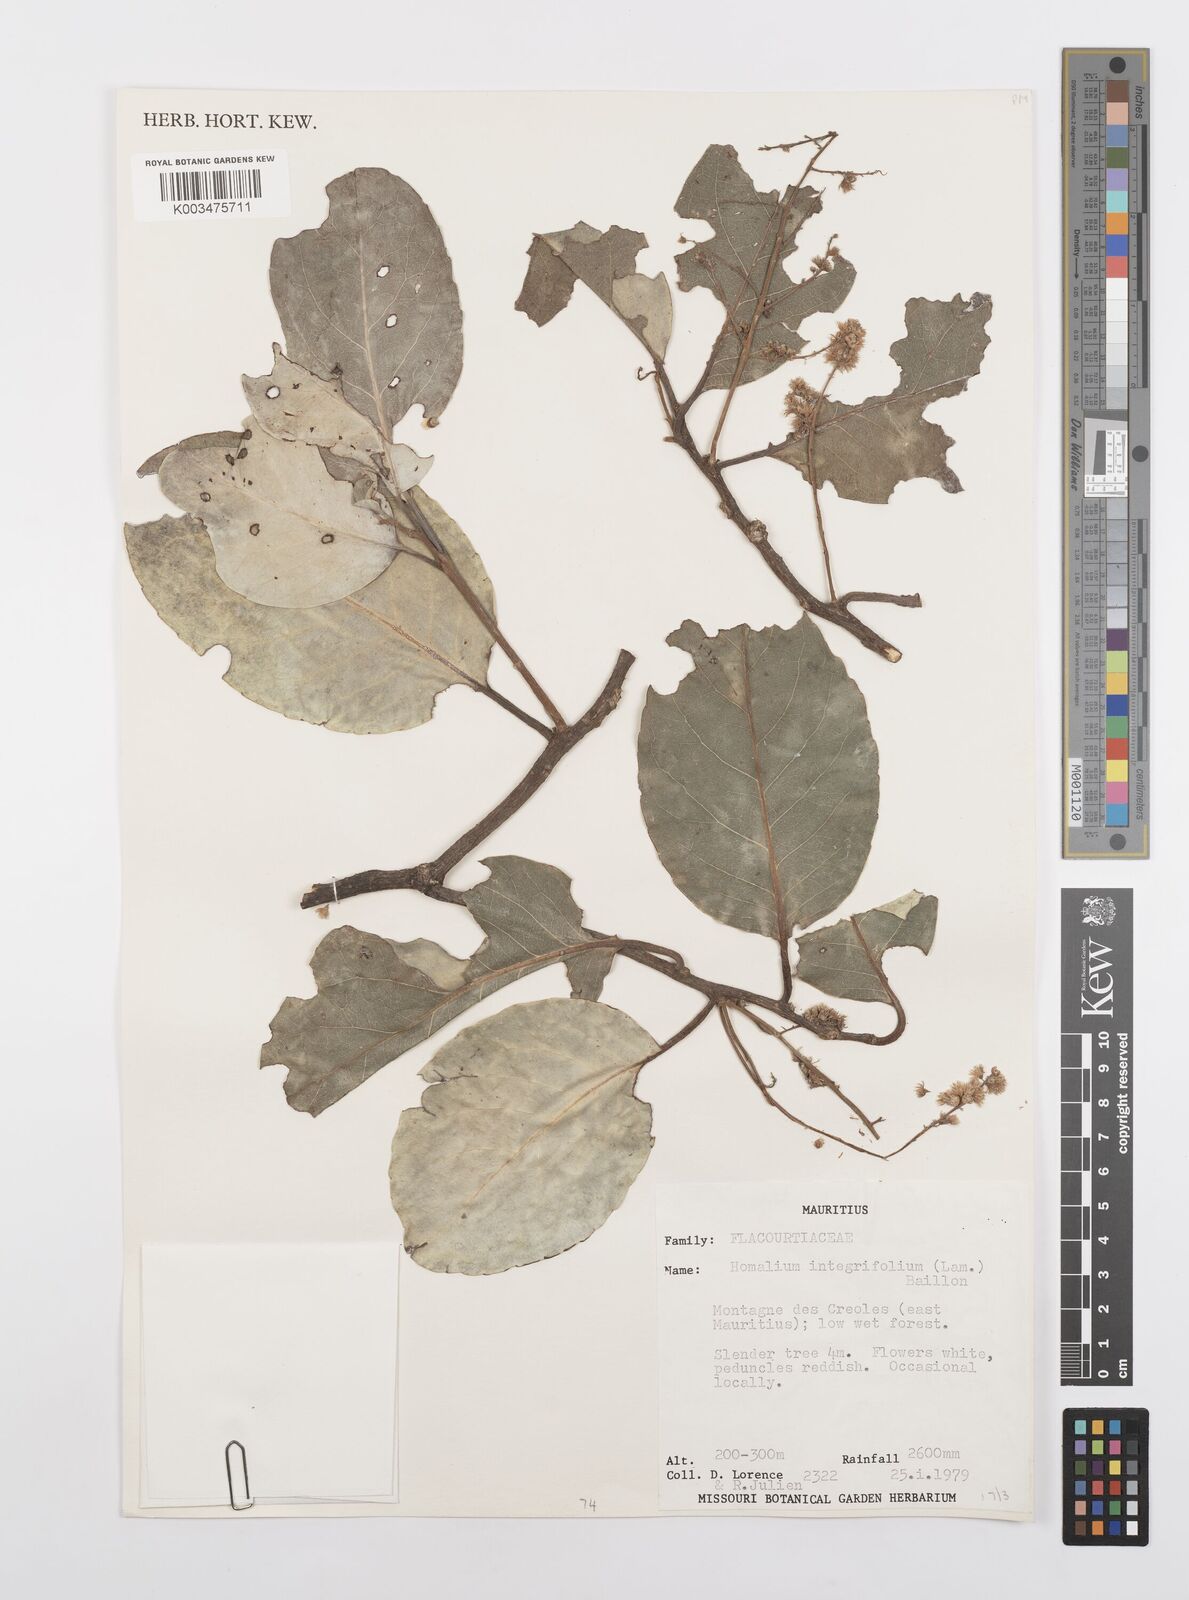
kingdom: Plantae
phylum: Tracheophyta
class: Magnoliopsida
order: Malpighiales
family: Salicaceae
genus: Homalium
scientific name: Homalium integrifolium
